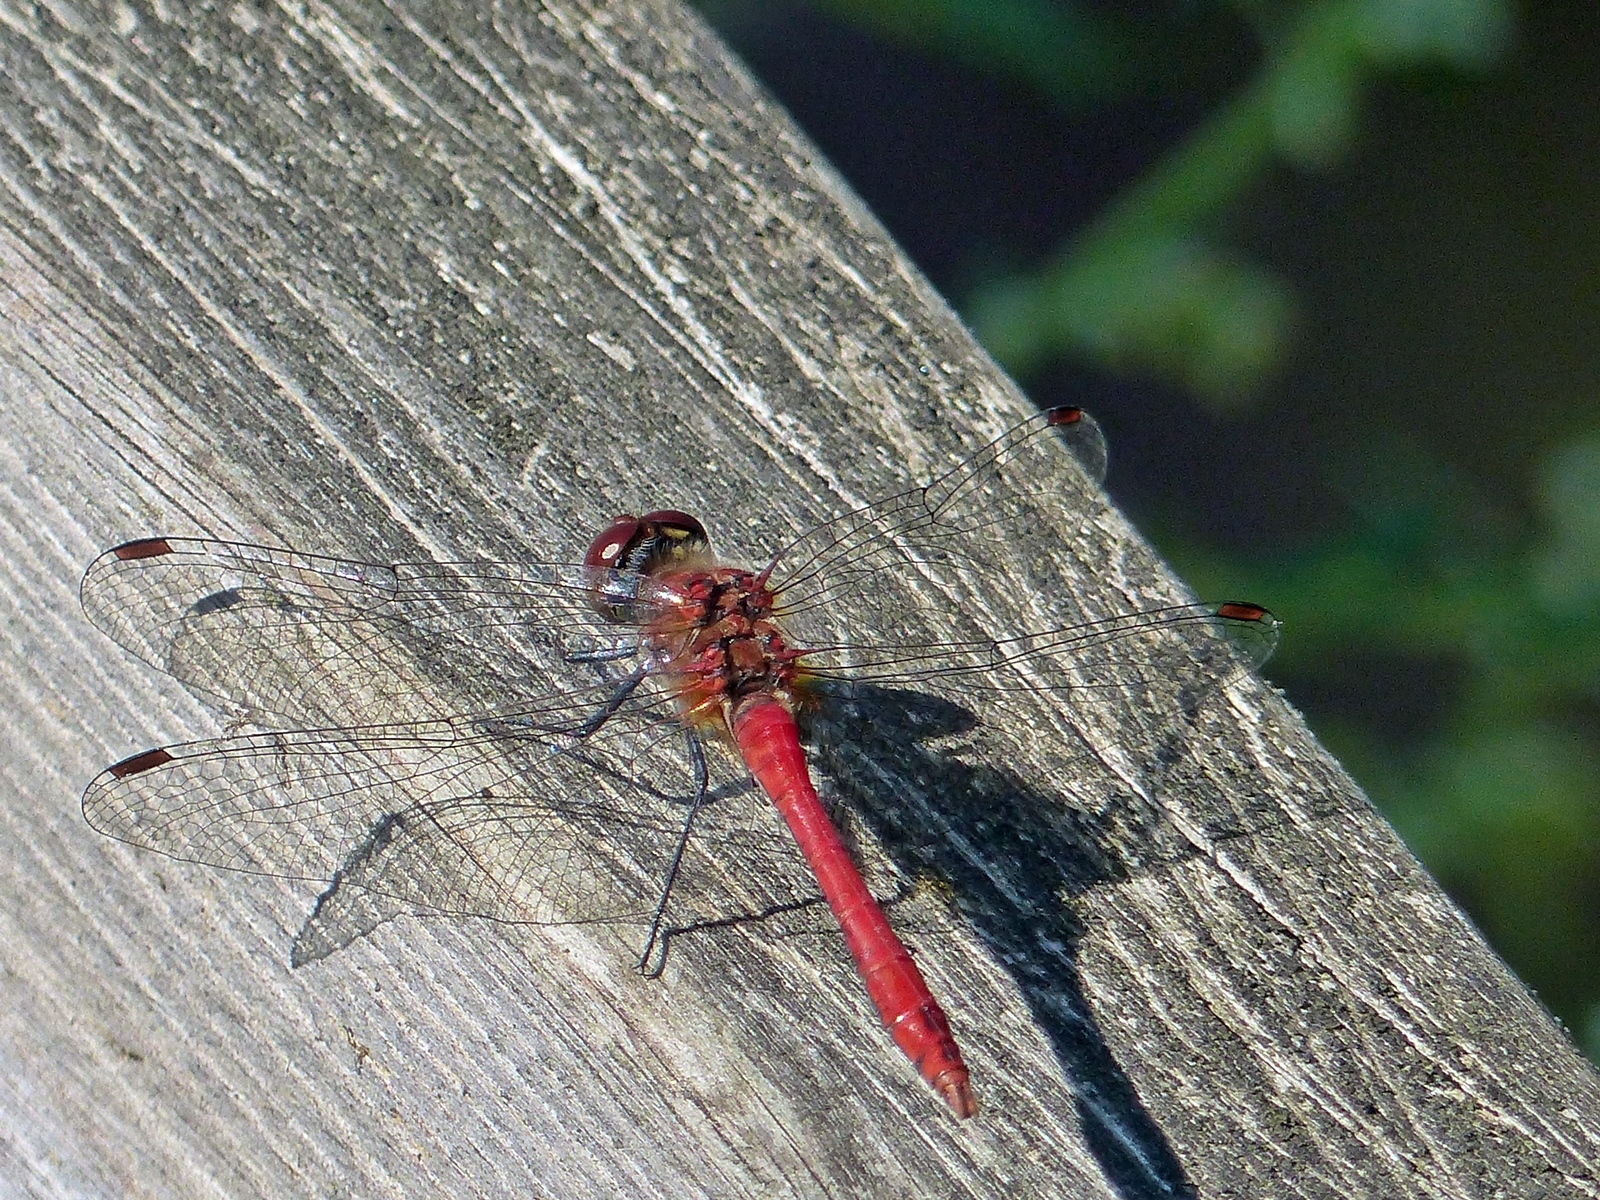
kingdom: Animalia
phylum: Arthropoda
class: Insecta
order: Odonata
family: Libellulidae
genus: Sympetrum
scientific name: Sympetrum sanguineum
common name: Ruddy darter
